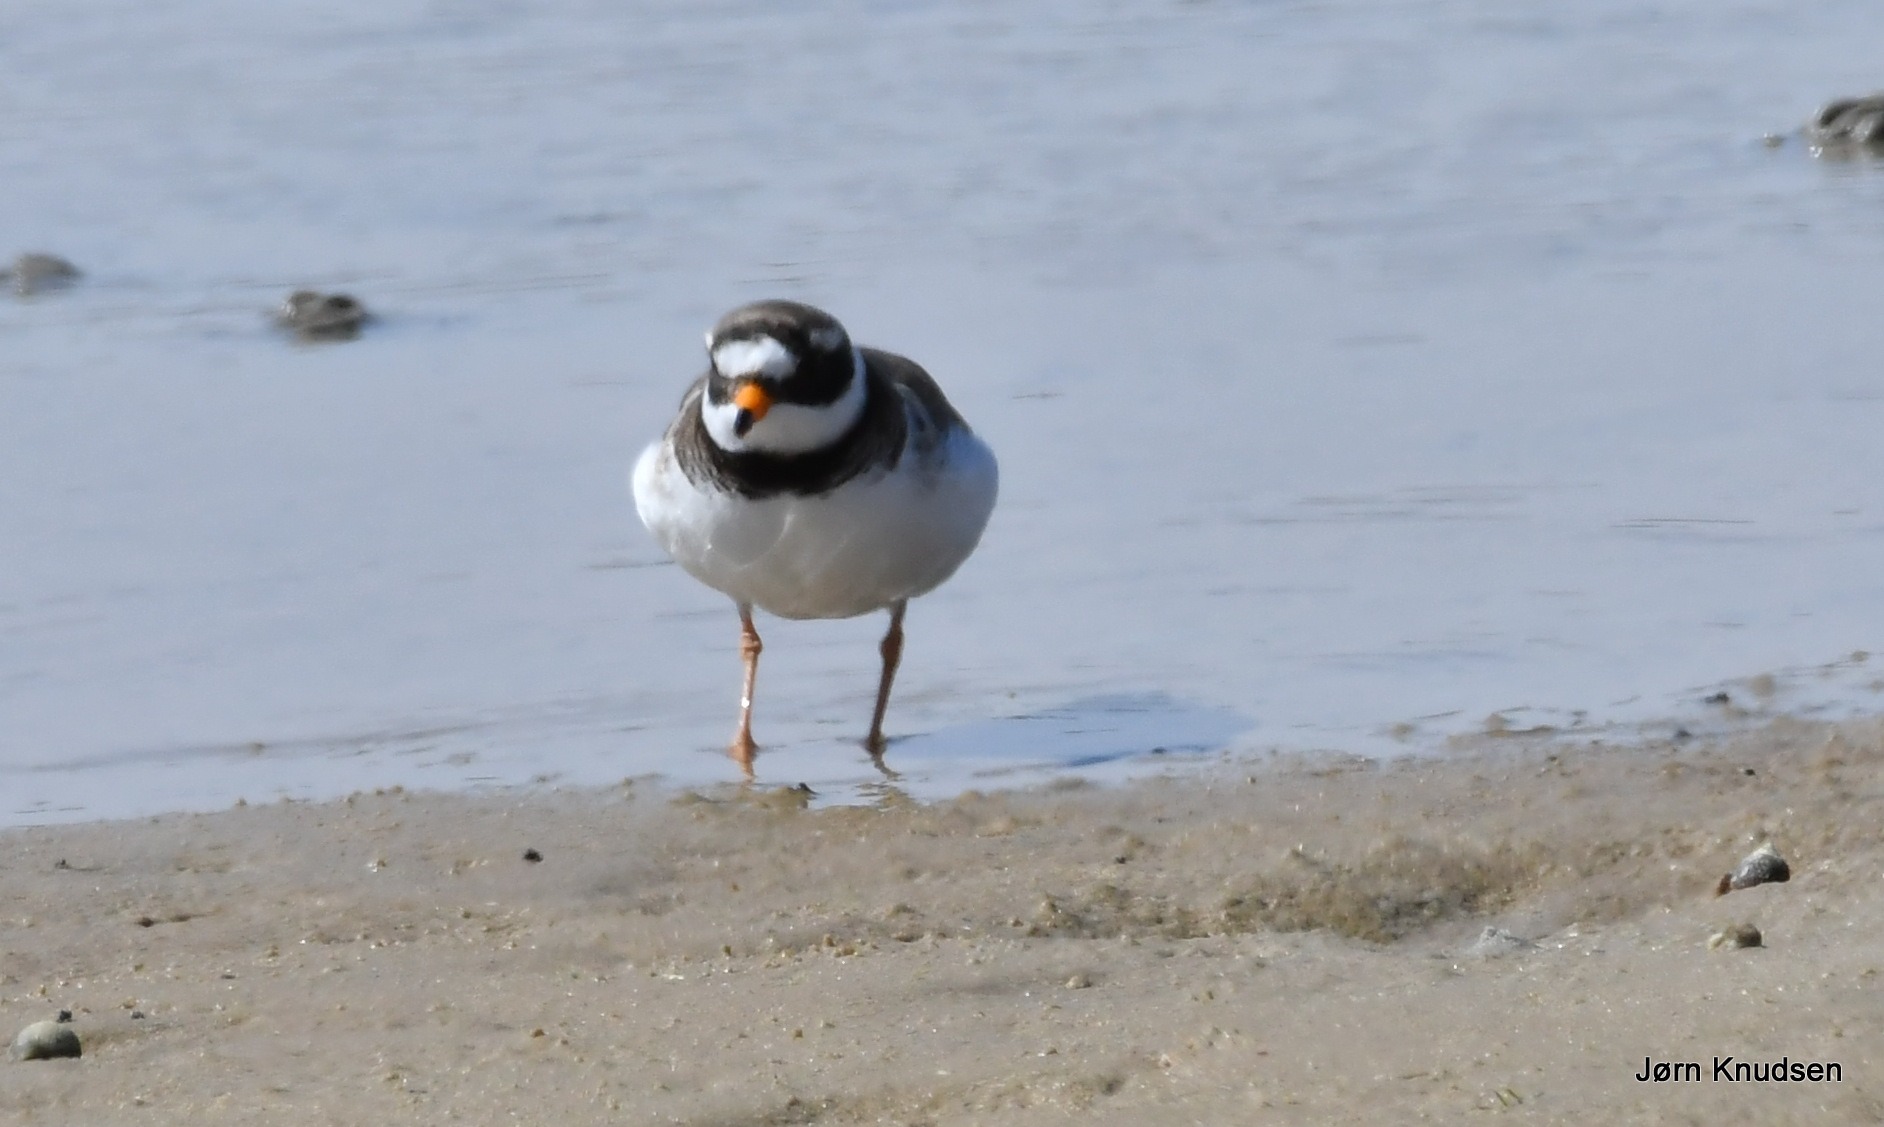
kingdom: Animalia
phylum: Chordata
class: Aves
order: Charadriiformes
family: Charadriidae
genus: Charadrius
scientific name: Charadrius hiaticula
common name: Stor præstekrave
